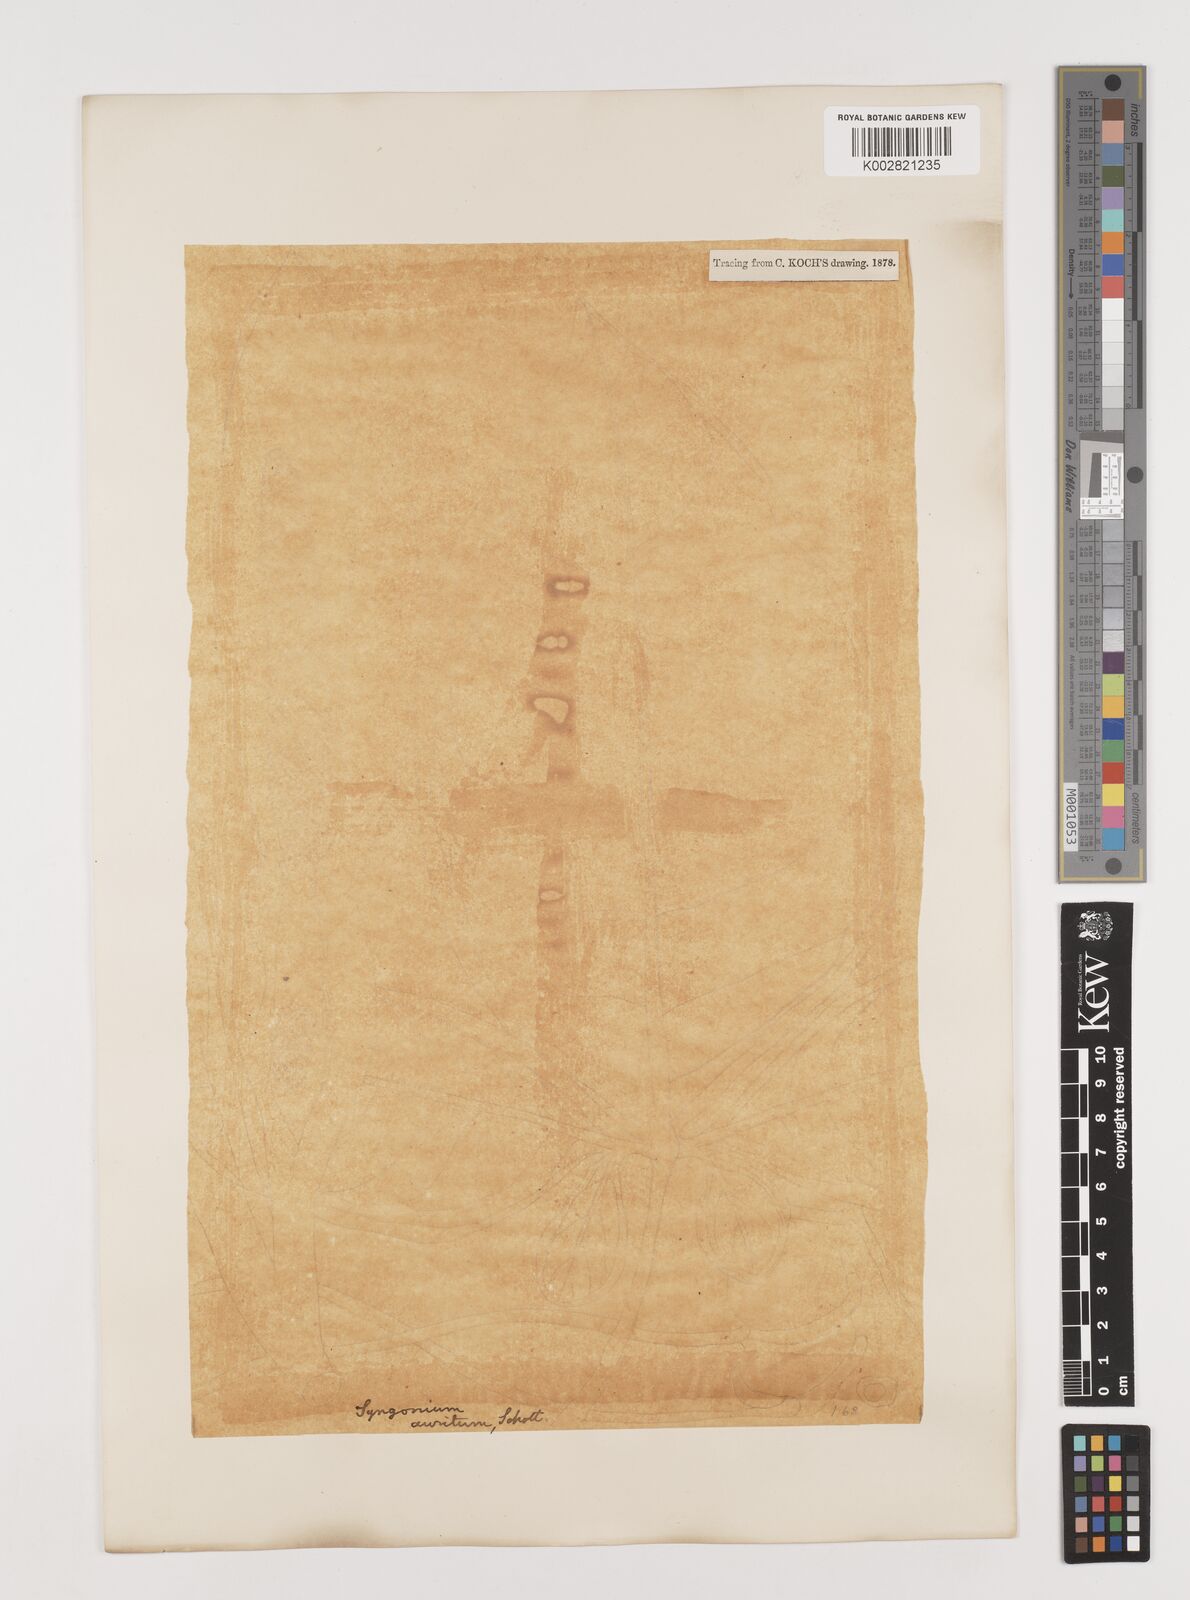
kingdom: Plantae
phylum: Tracheophyta
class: Liliopsida
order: Alismatales
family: Araceae
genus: Syngonium
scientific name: Syngonium auritum
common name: Five-fingers
